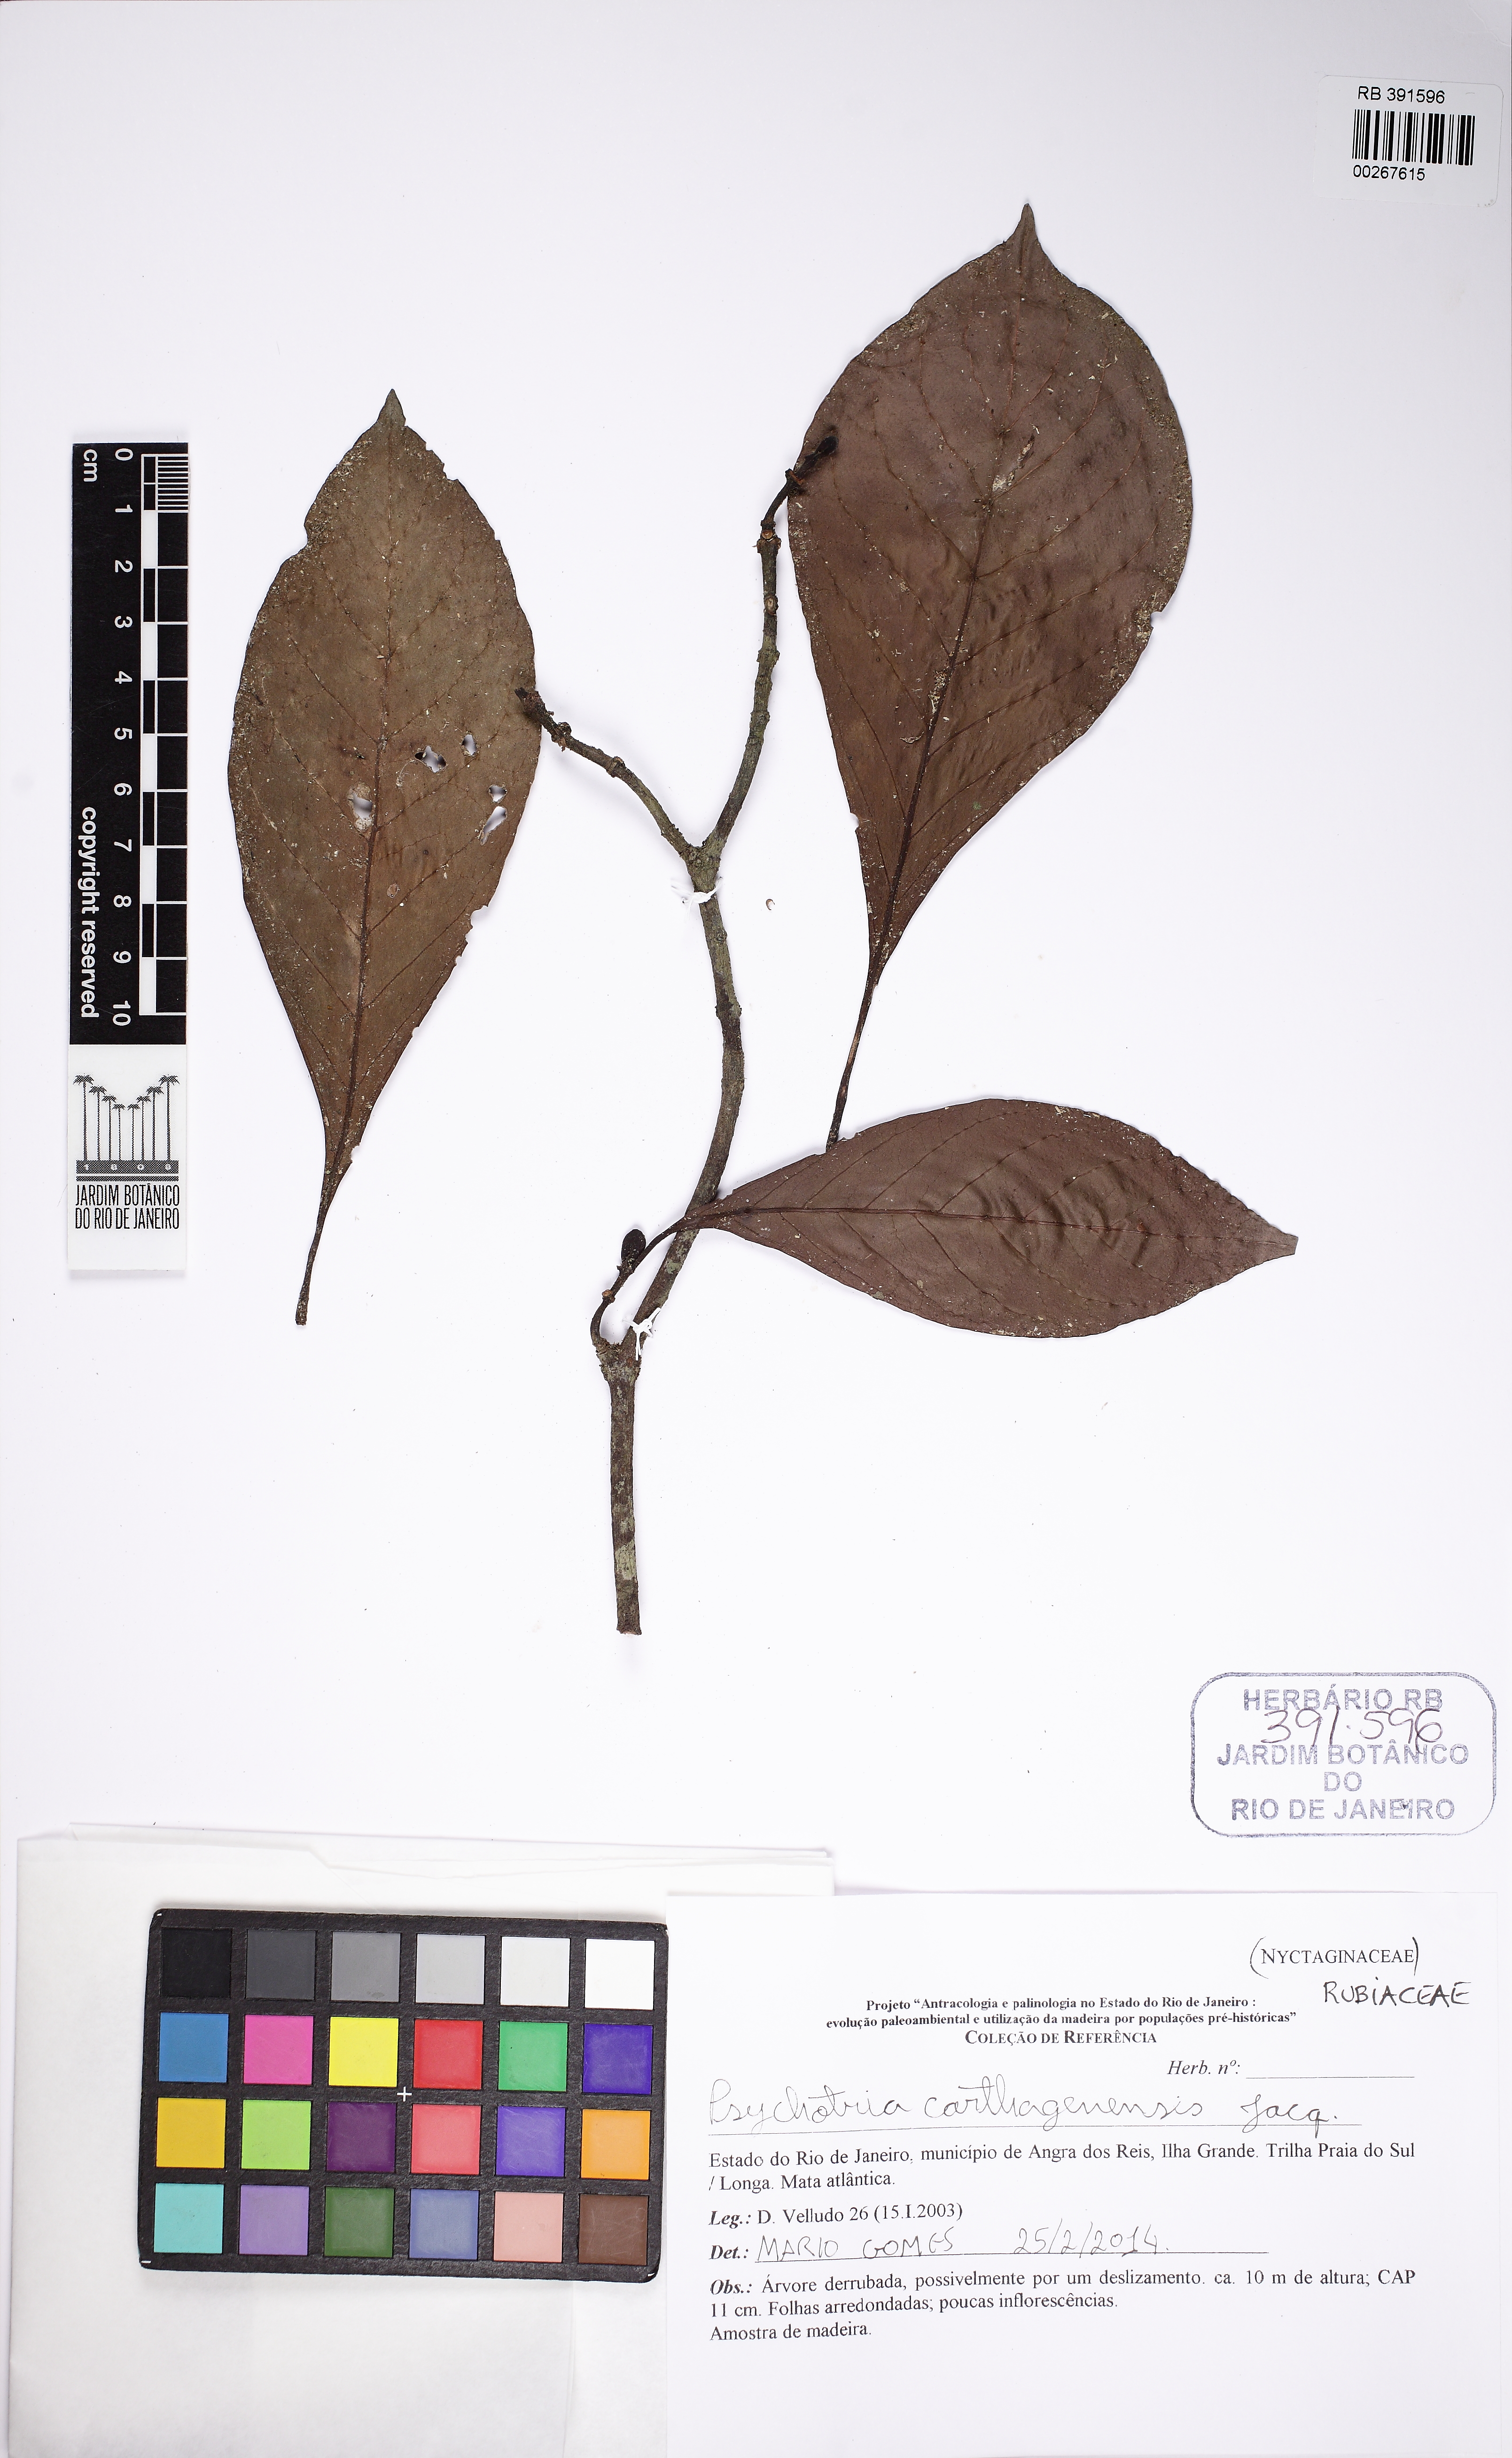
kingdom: Plantae
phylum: Tracheophyta
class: Magnoliopsida
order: Gentianales
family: Rubiaceae
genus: Psychotria
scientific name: Psychotria carthagenensis
